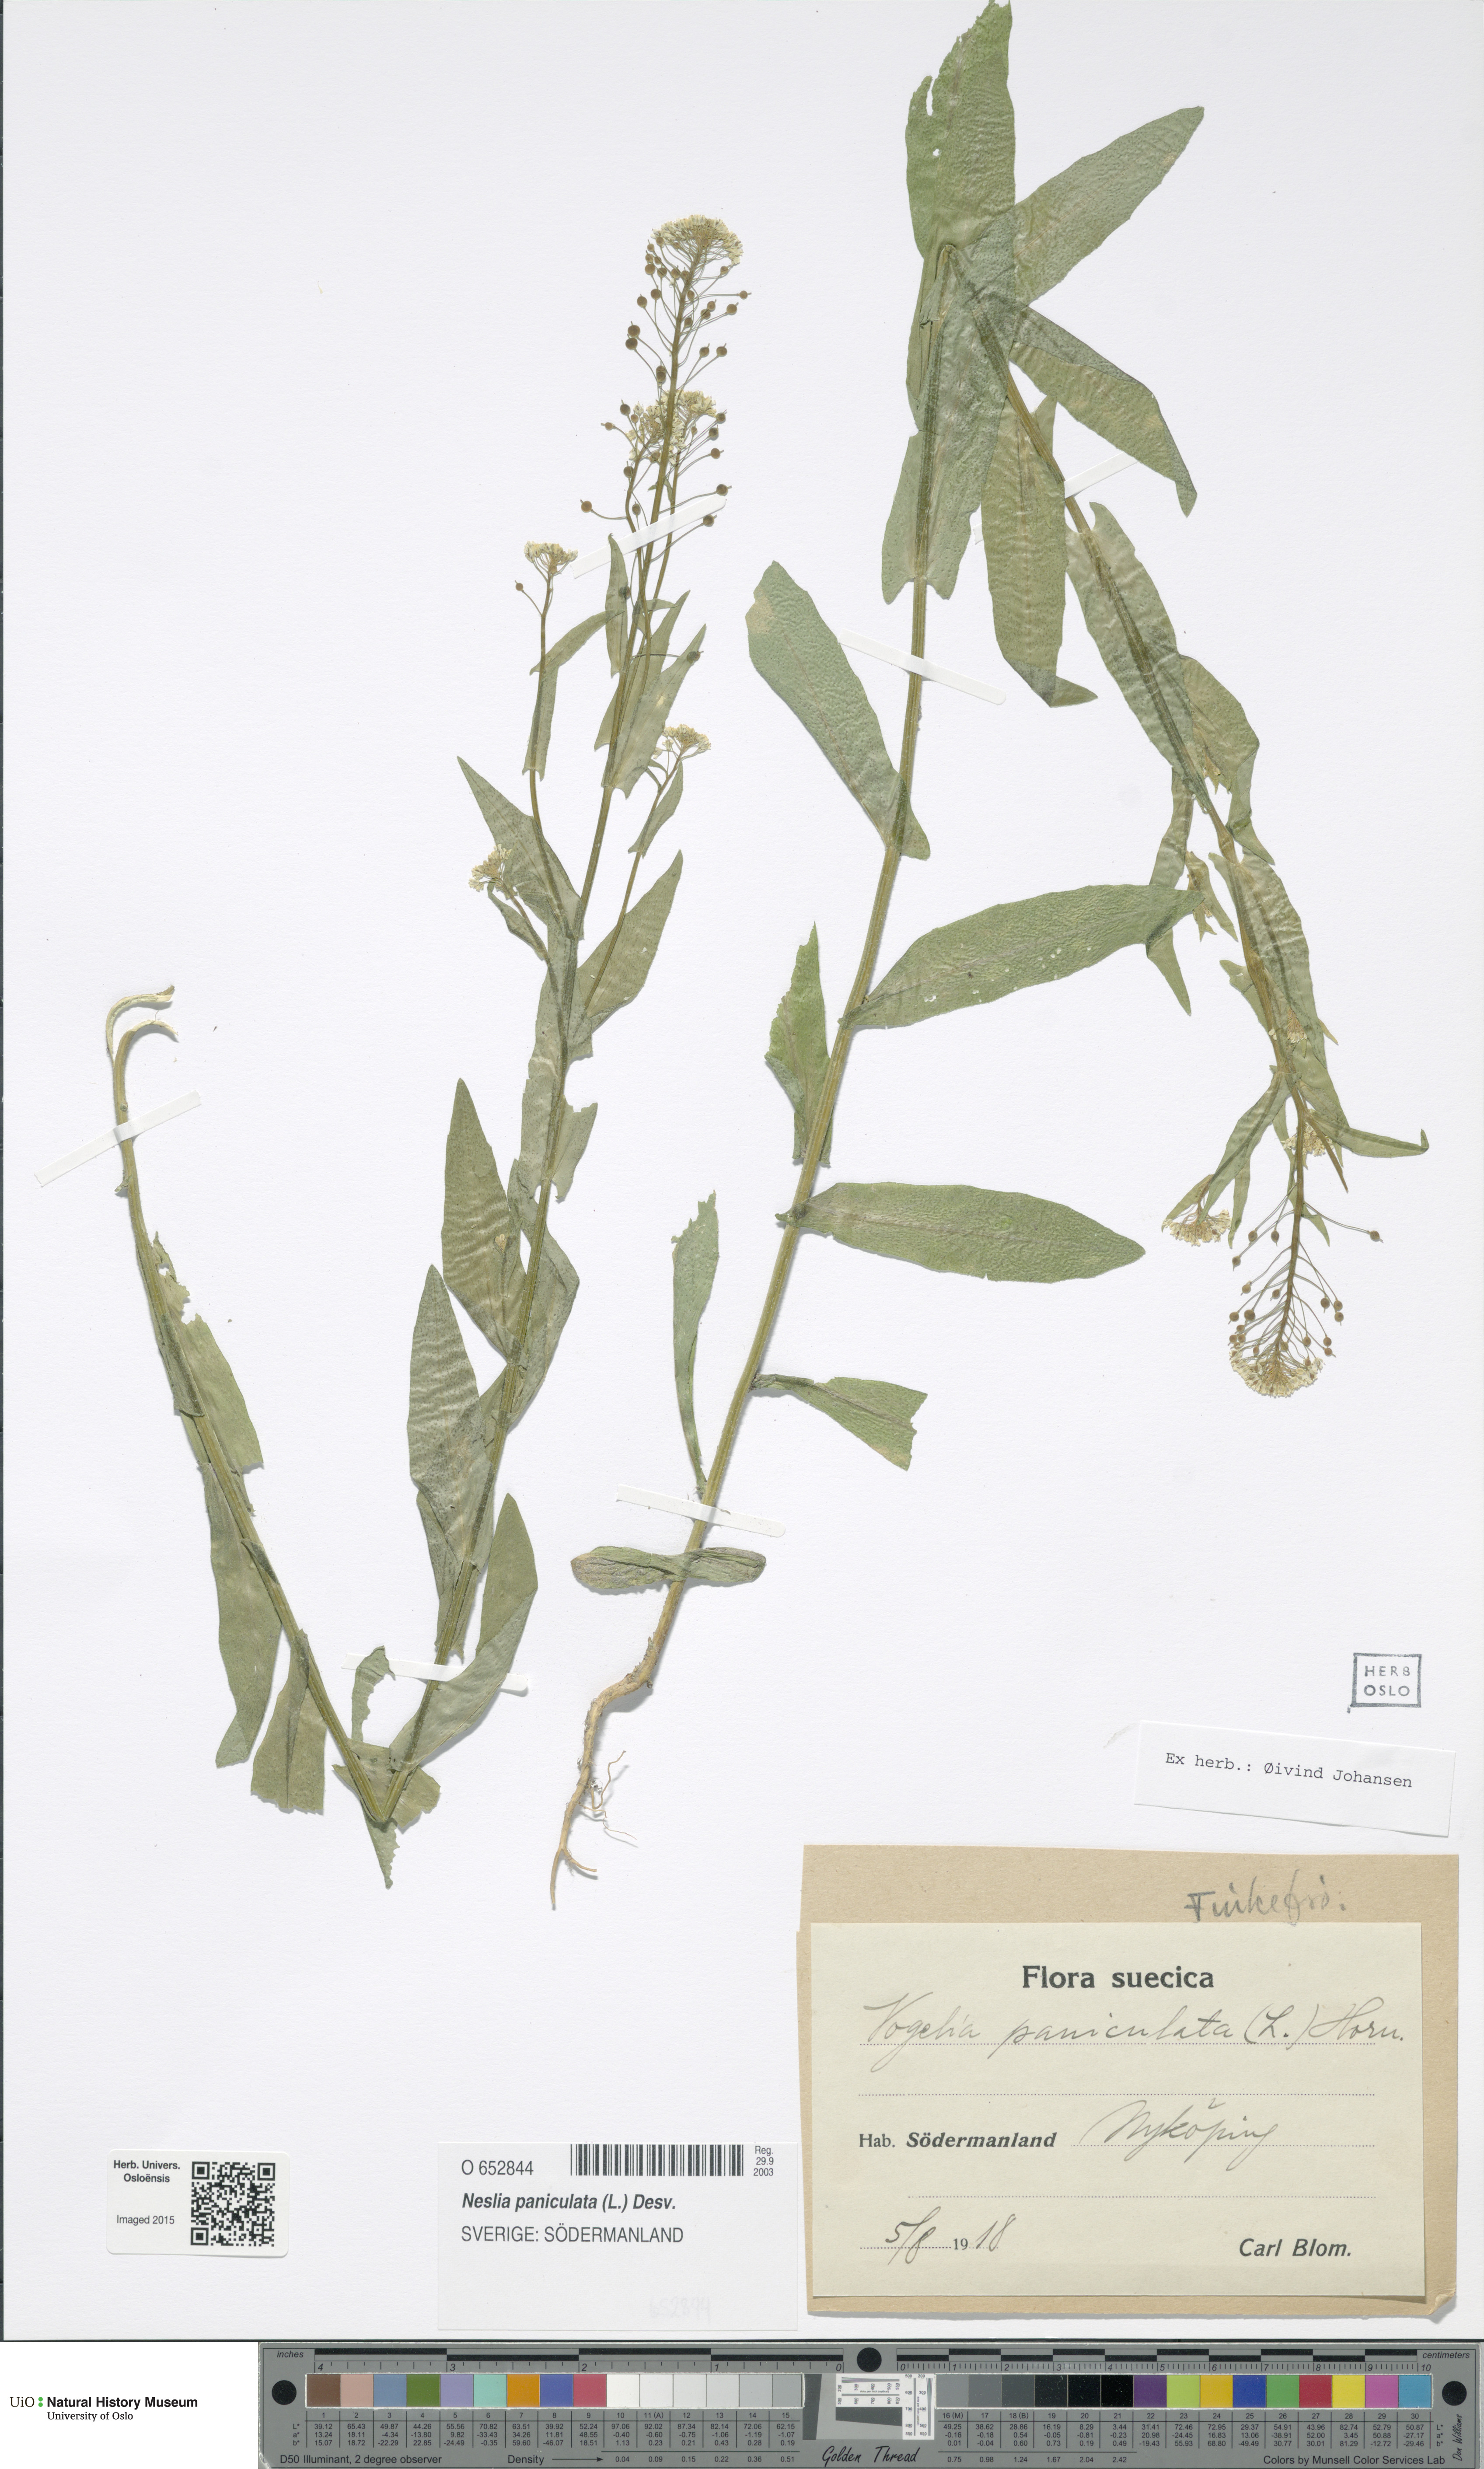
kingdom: Plantae
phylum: Tracheophyta
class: Magnoliopsida
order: Brassicales
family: Brassicaceae
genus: Neslia
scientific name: Neslia paniculata
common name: Ball mustard
